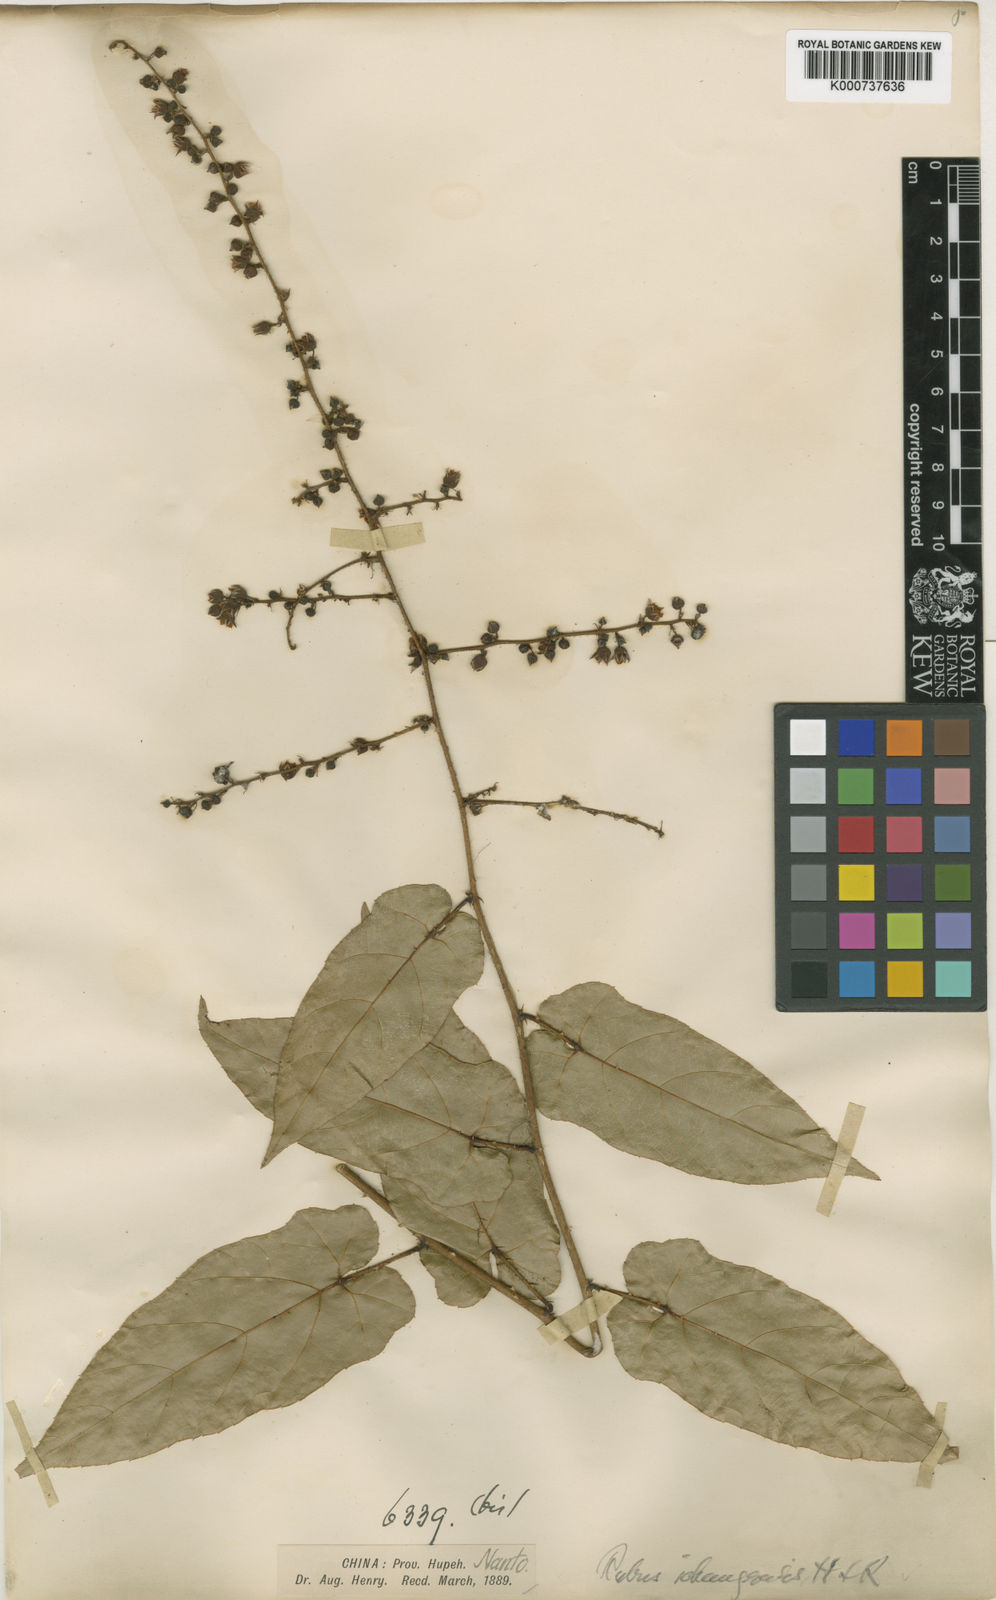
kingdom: Plantae
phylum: Tracheophyta
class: Magnoliopsida
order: Rosales
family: Rosaceae
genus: Rubus
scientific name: Rubus ichangensis
